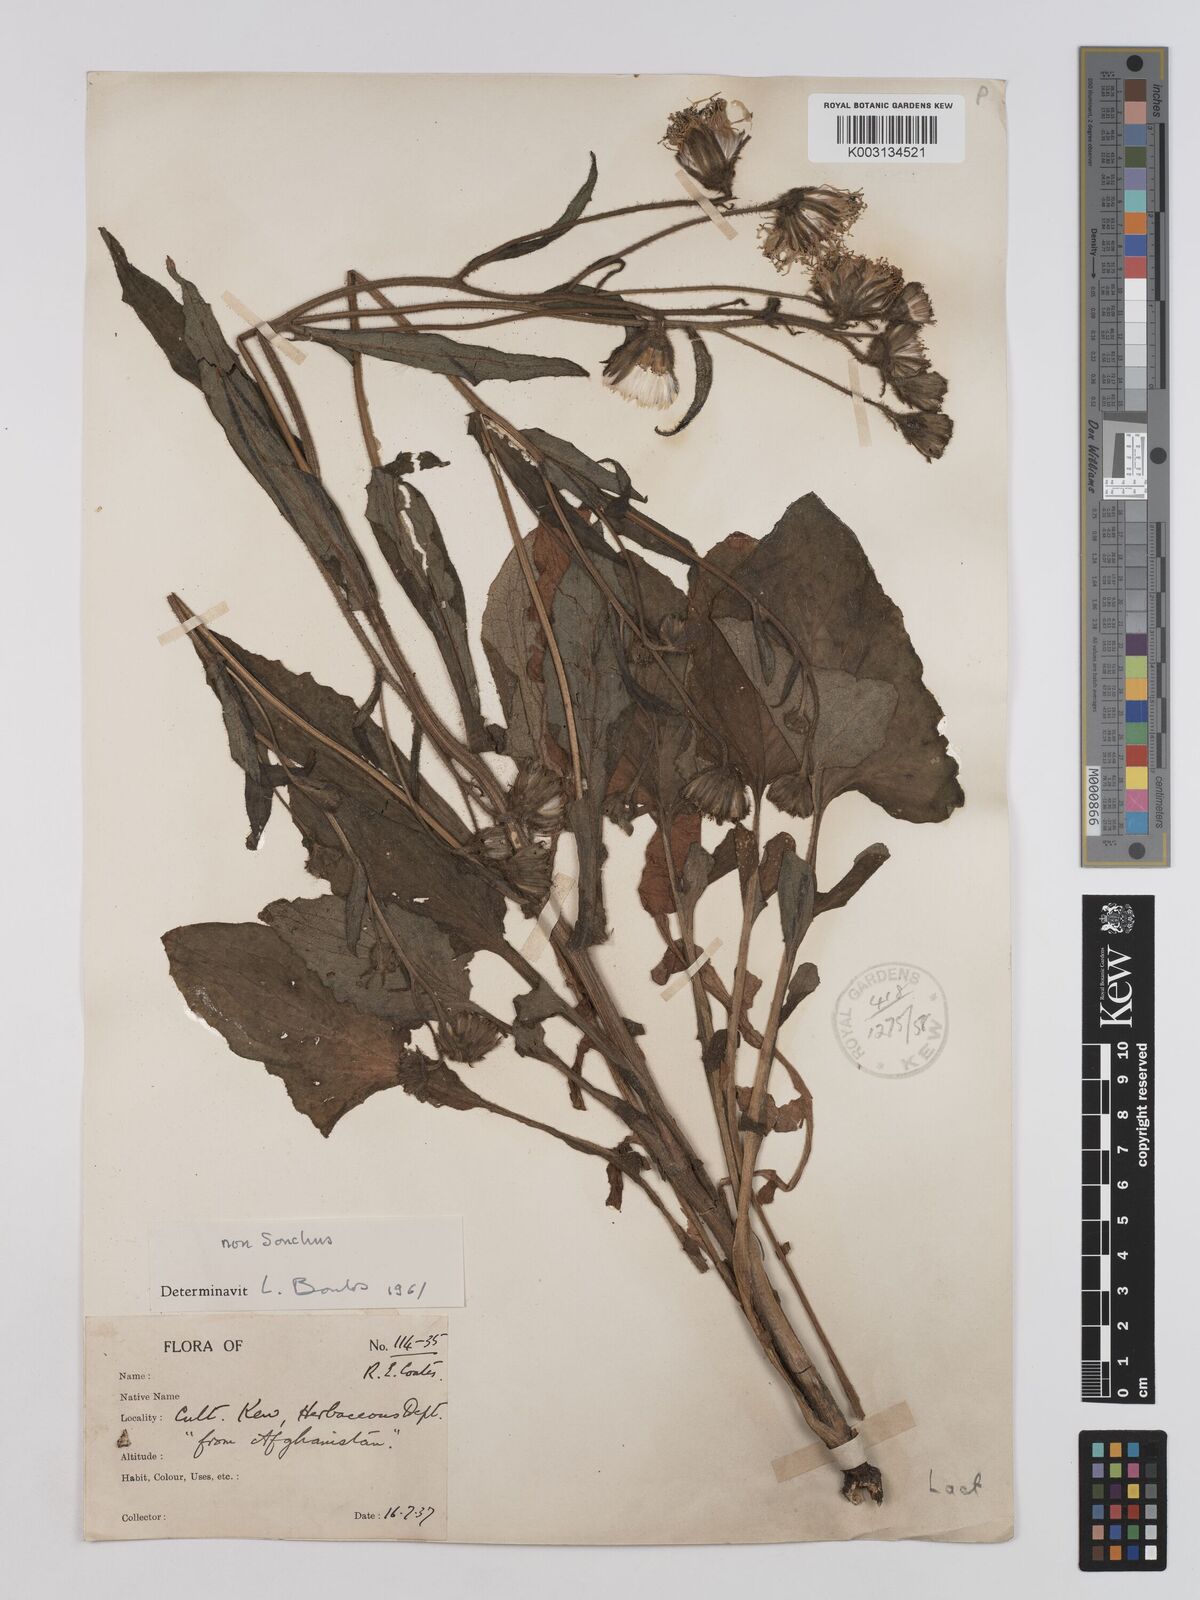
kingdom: Plantae
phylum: Tracheophyta
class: Magnoliopsida
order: Asterales
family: Asteraceae
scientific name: Asteraceae
